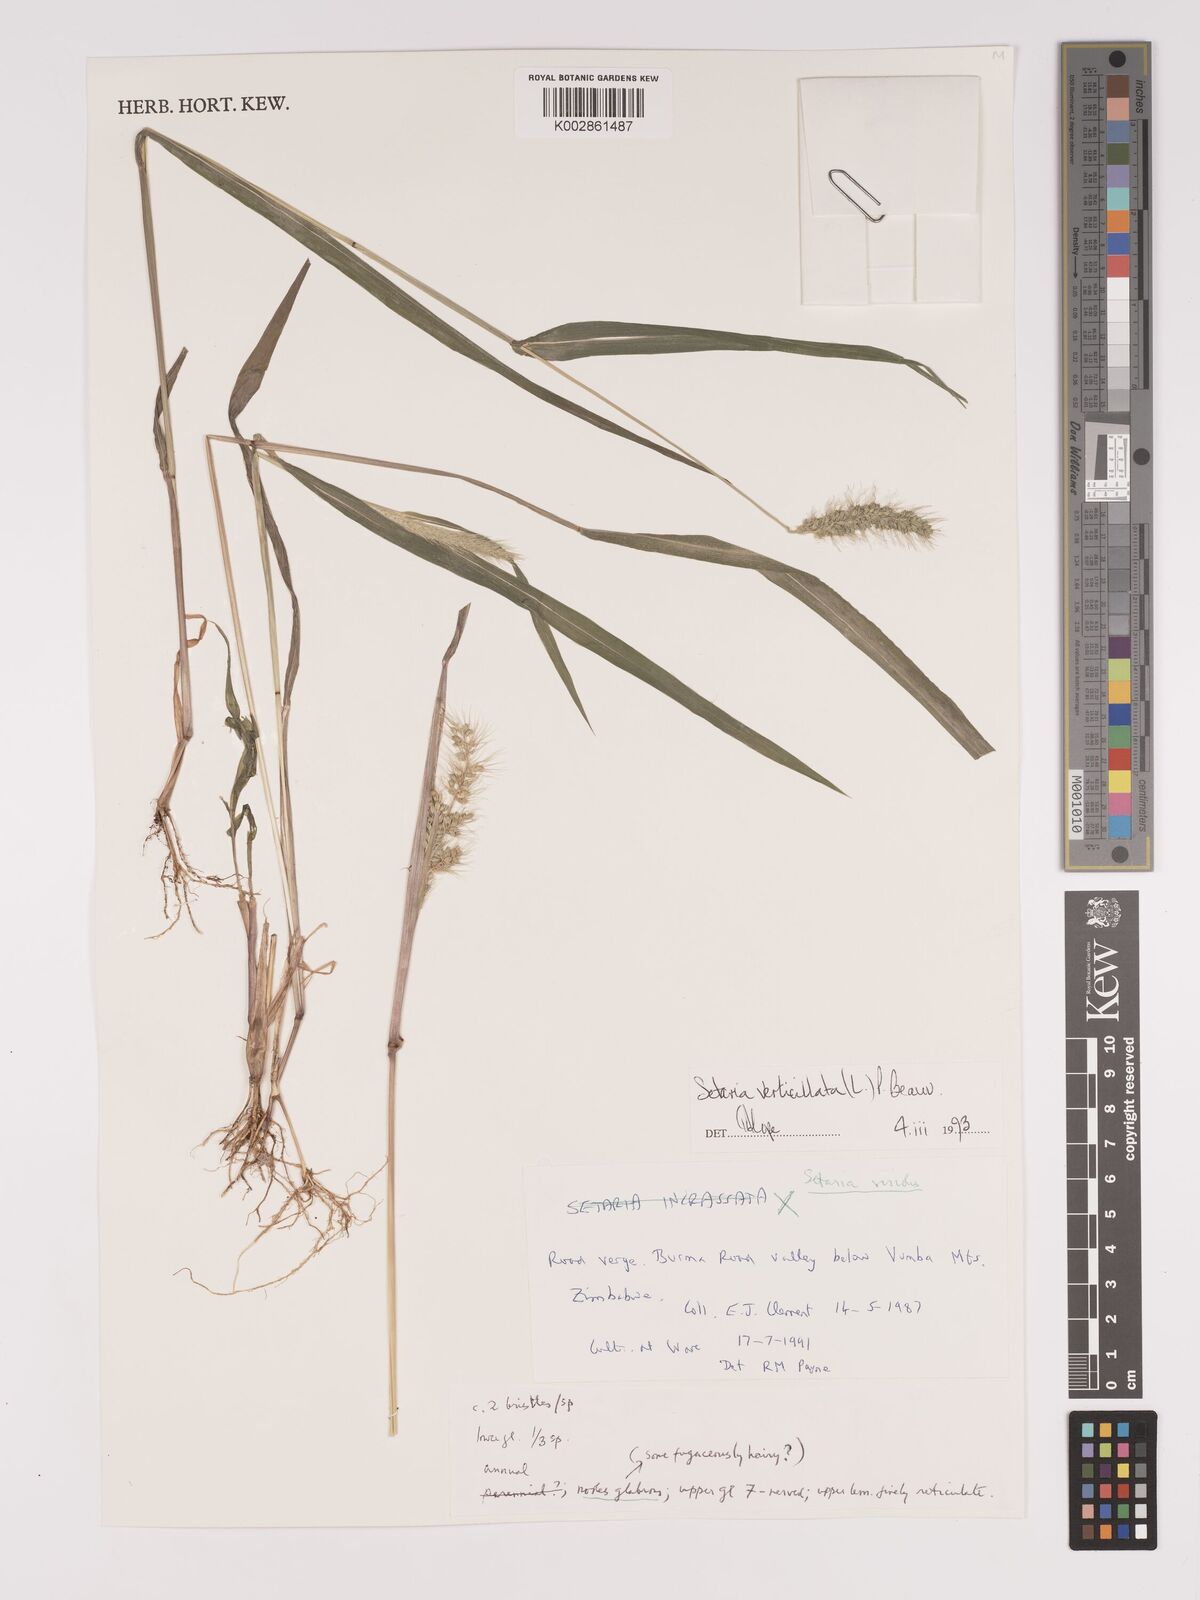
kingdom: Plantae
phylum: Tracheophyta
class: Liliopsida
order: Poales
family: Poaceae
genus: Setaria
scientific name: Setaria verticillata
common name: Hooked bristlegrass
